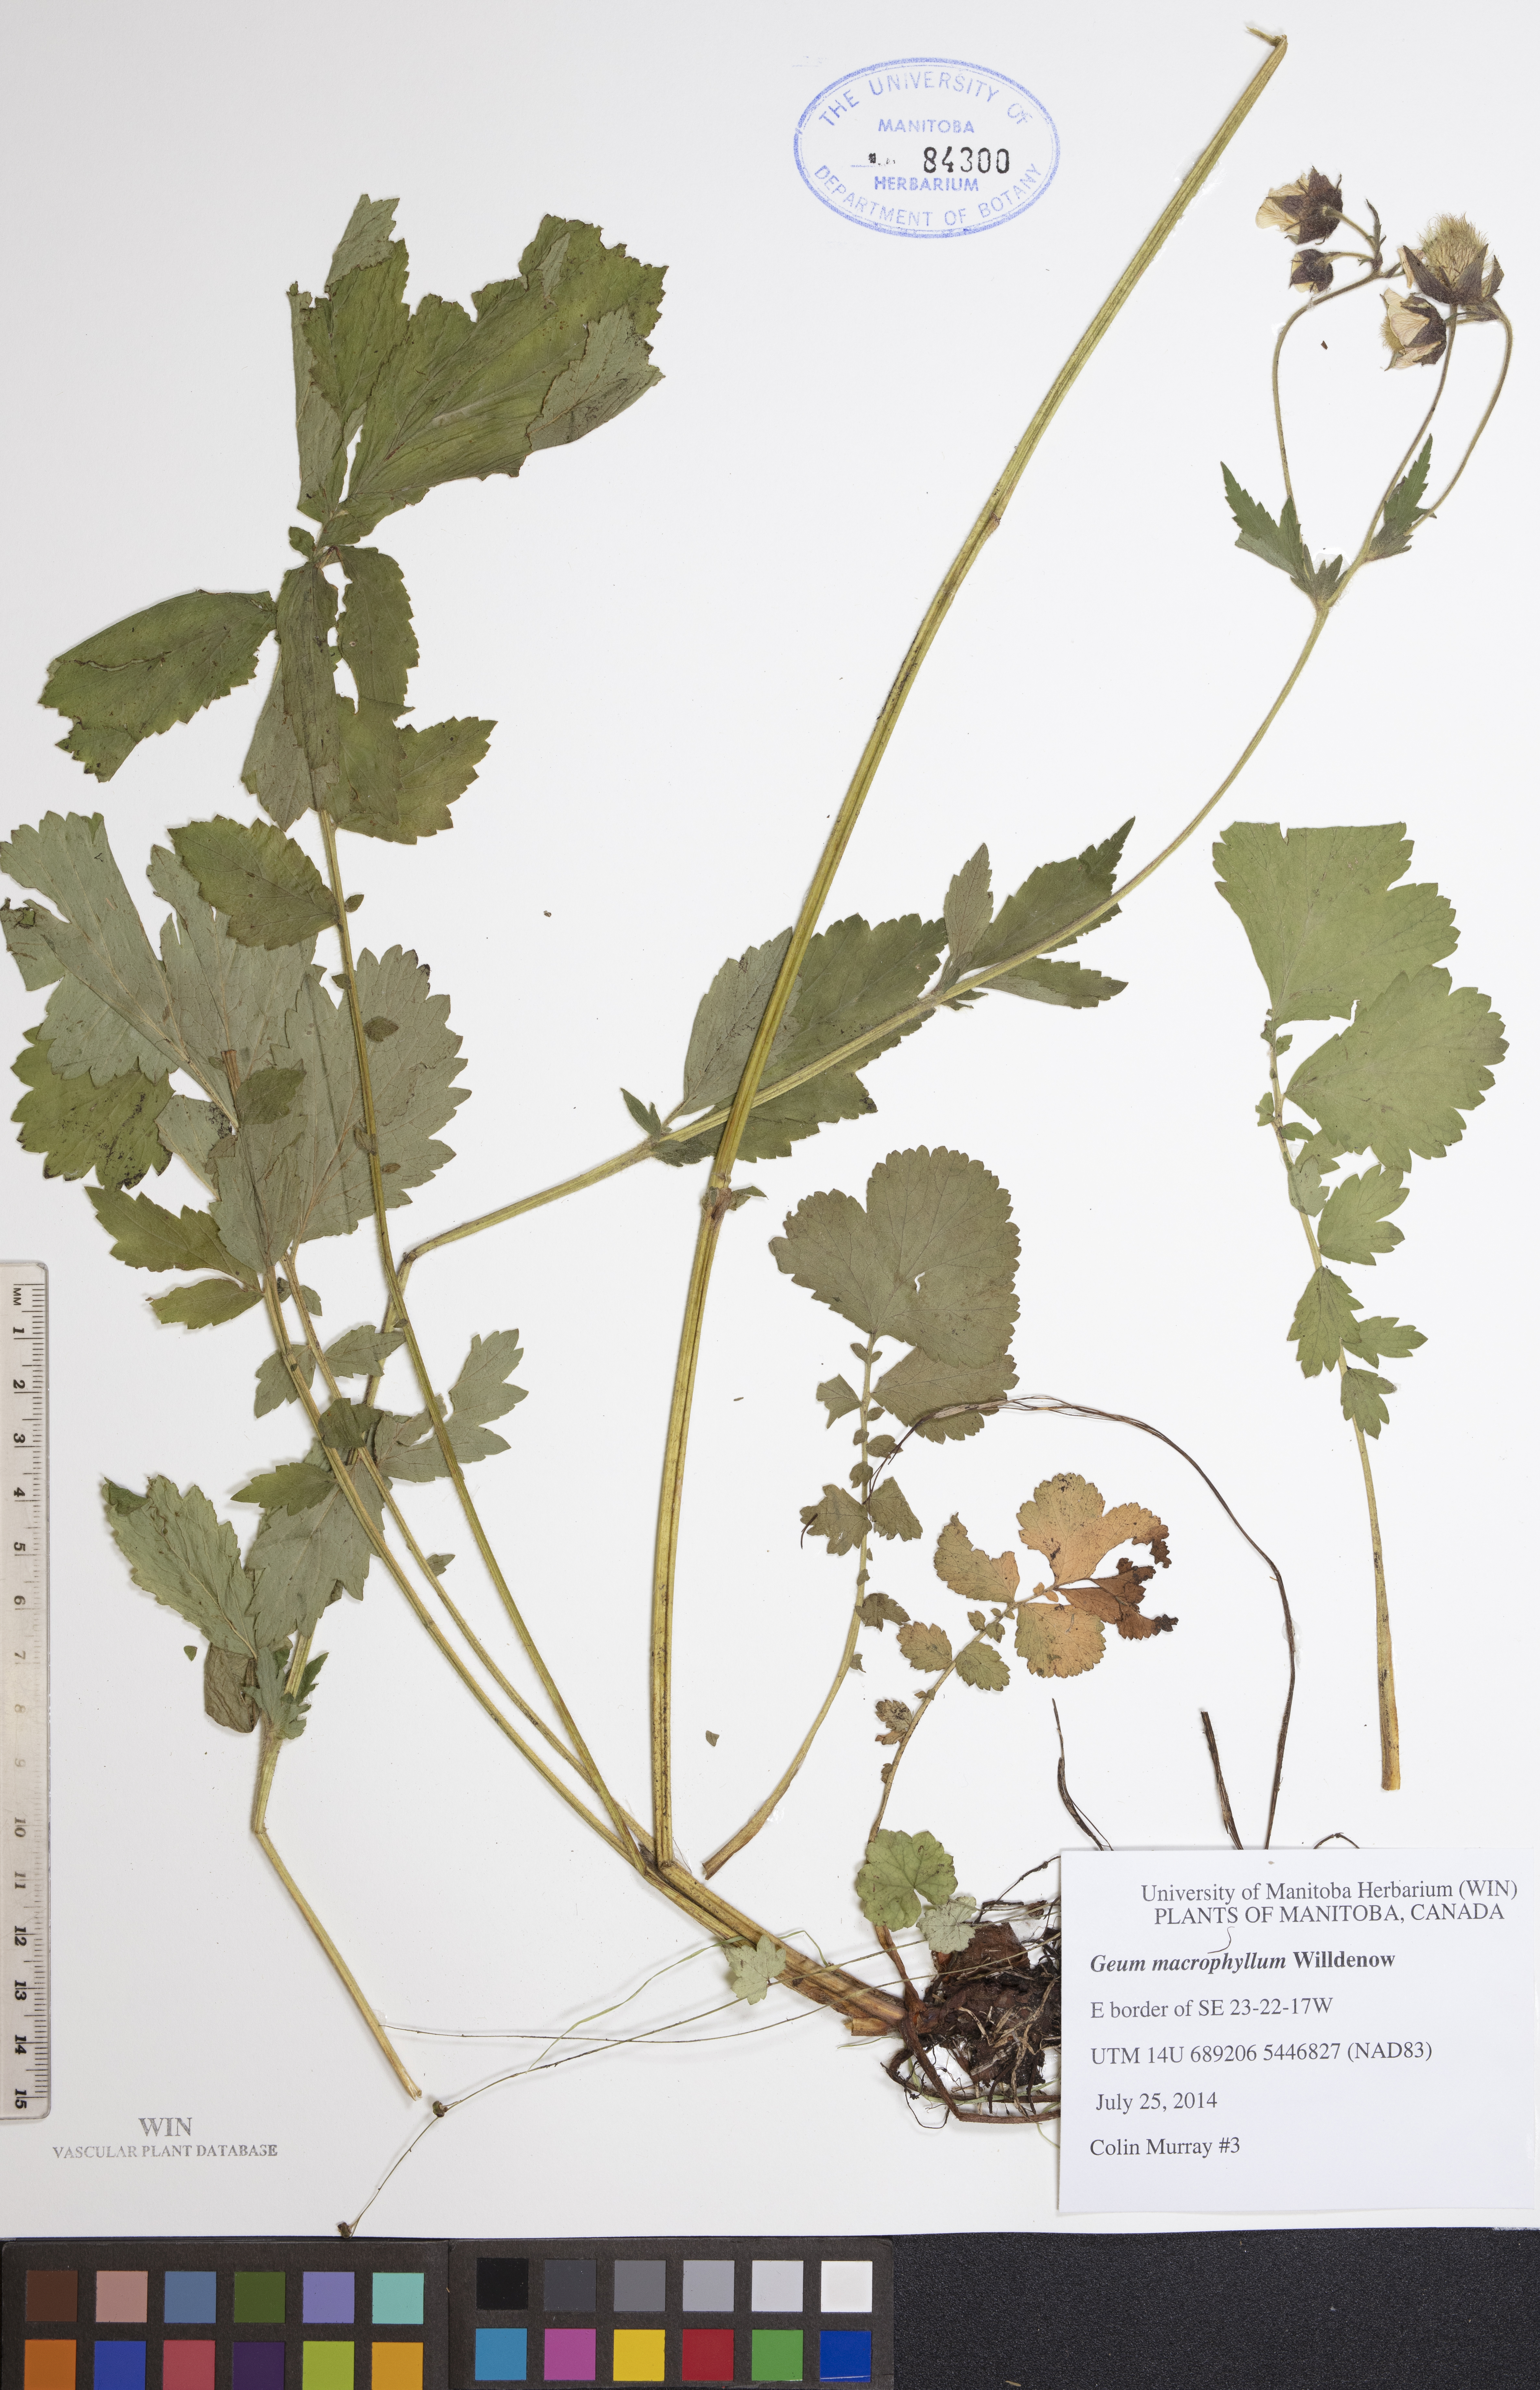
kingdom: Plantae
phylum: Tracheophyta
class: Magnoliopsida
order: Rosales
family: Rosaceae
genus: Geum
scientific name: Geum macrophyllum
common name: Large-leaved avens
